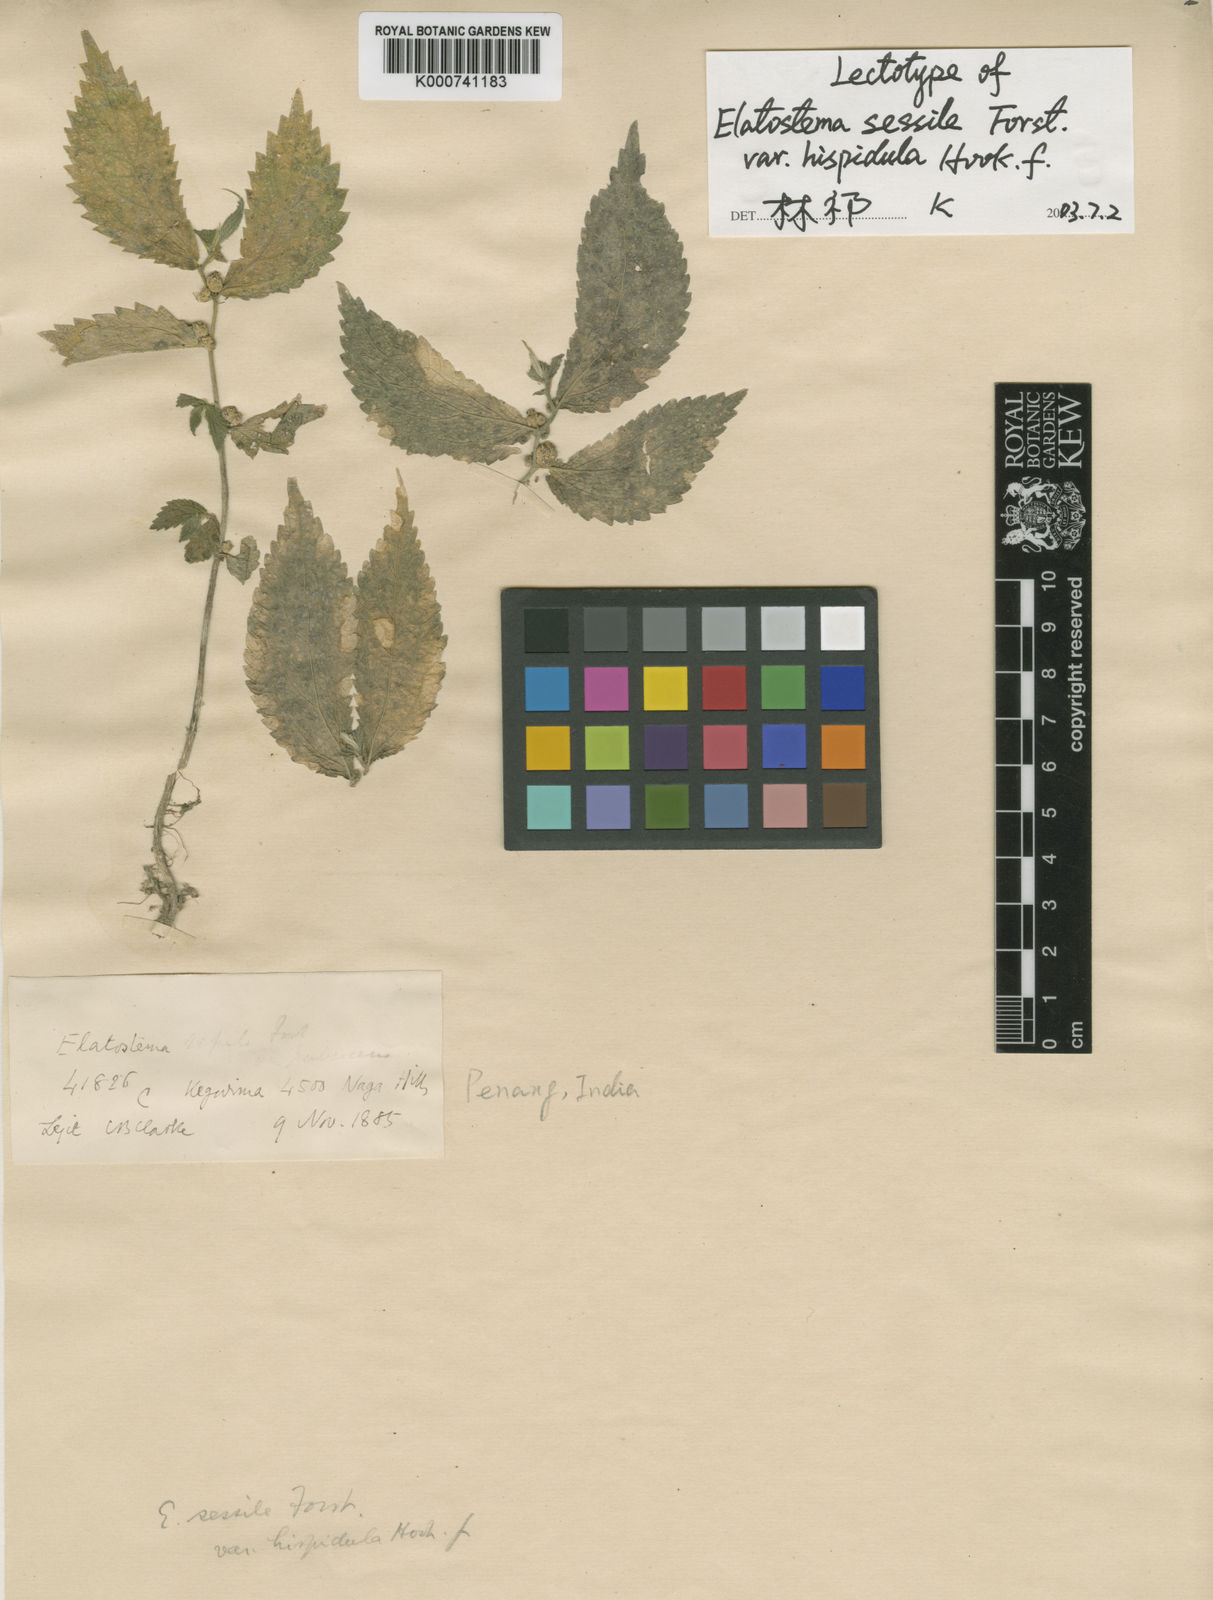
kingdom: Plantae
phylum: Tracheophyta
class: Magnoliopsida
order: Rosales
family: Urticaceae
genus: Elatostema
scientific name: Elatostema sessile
